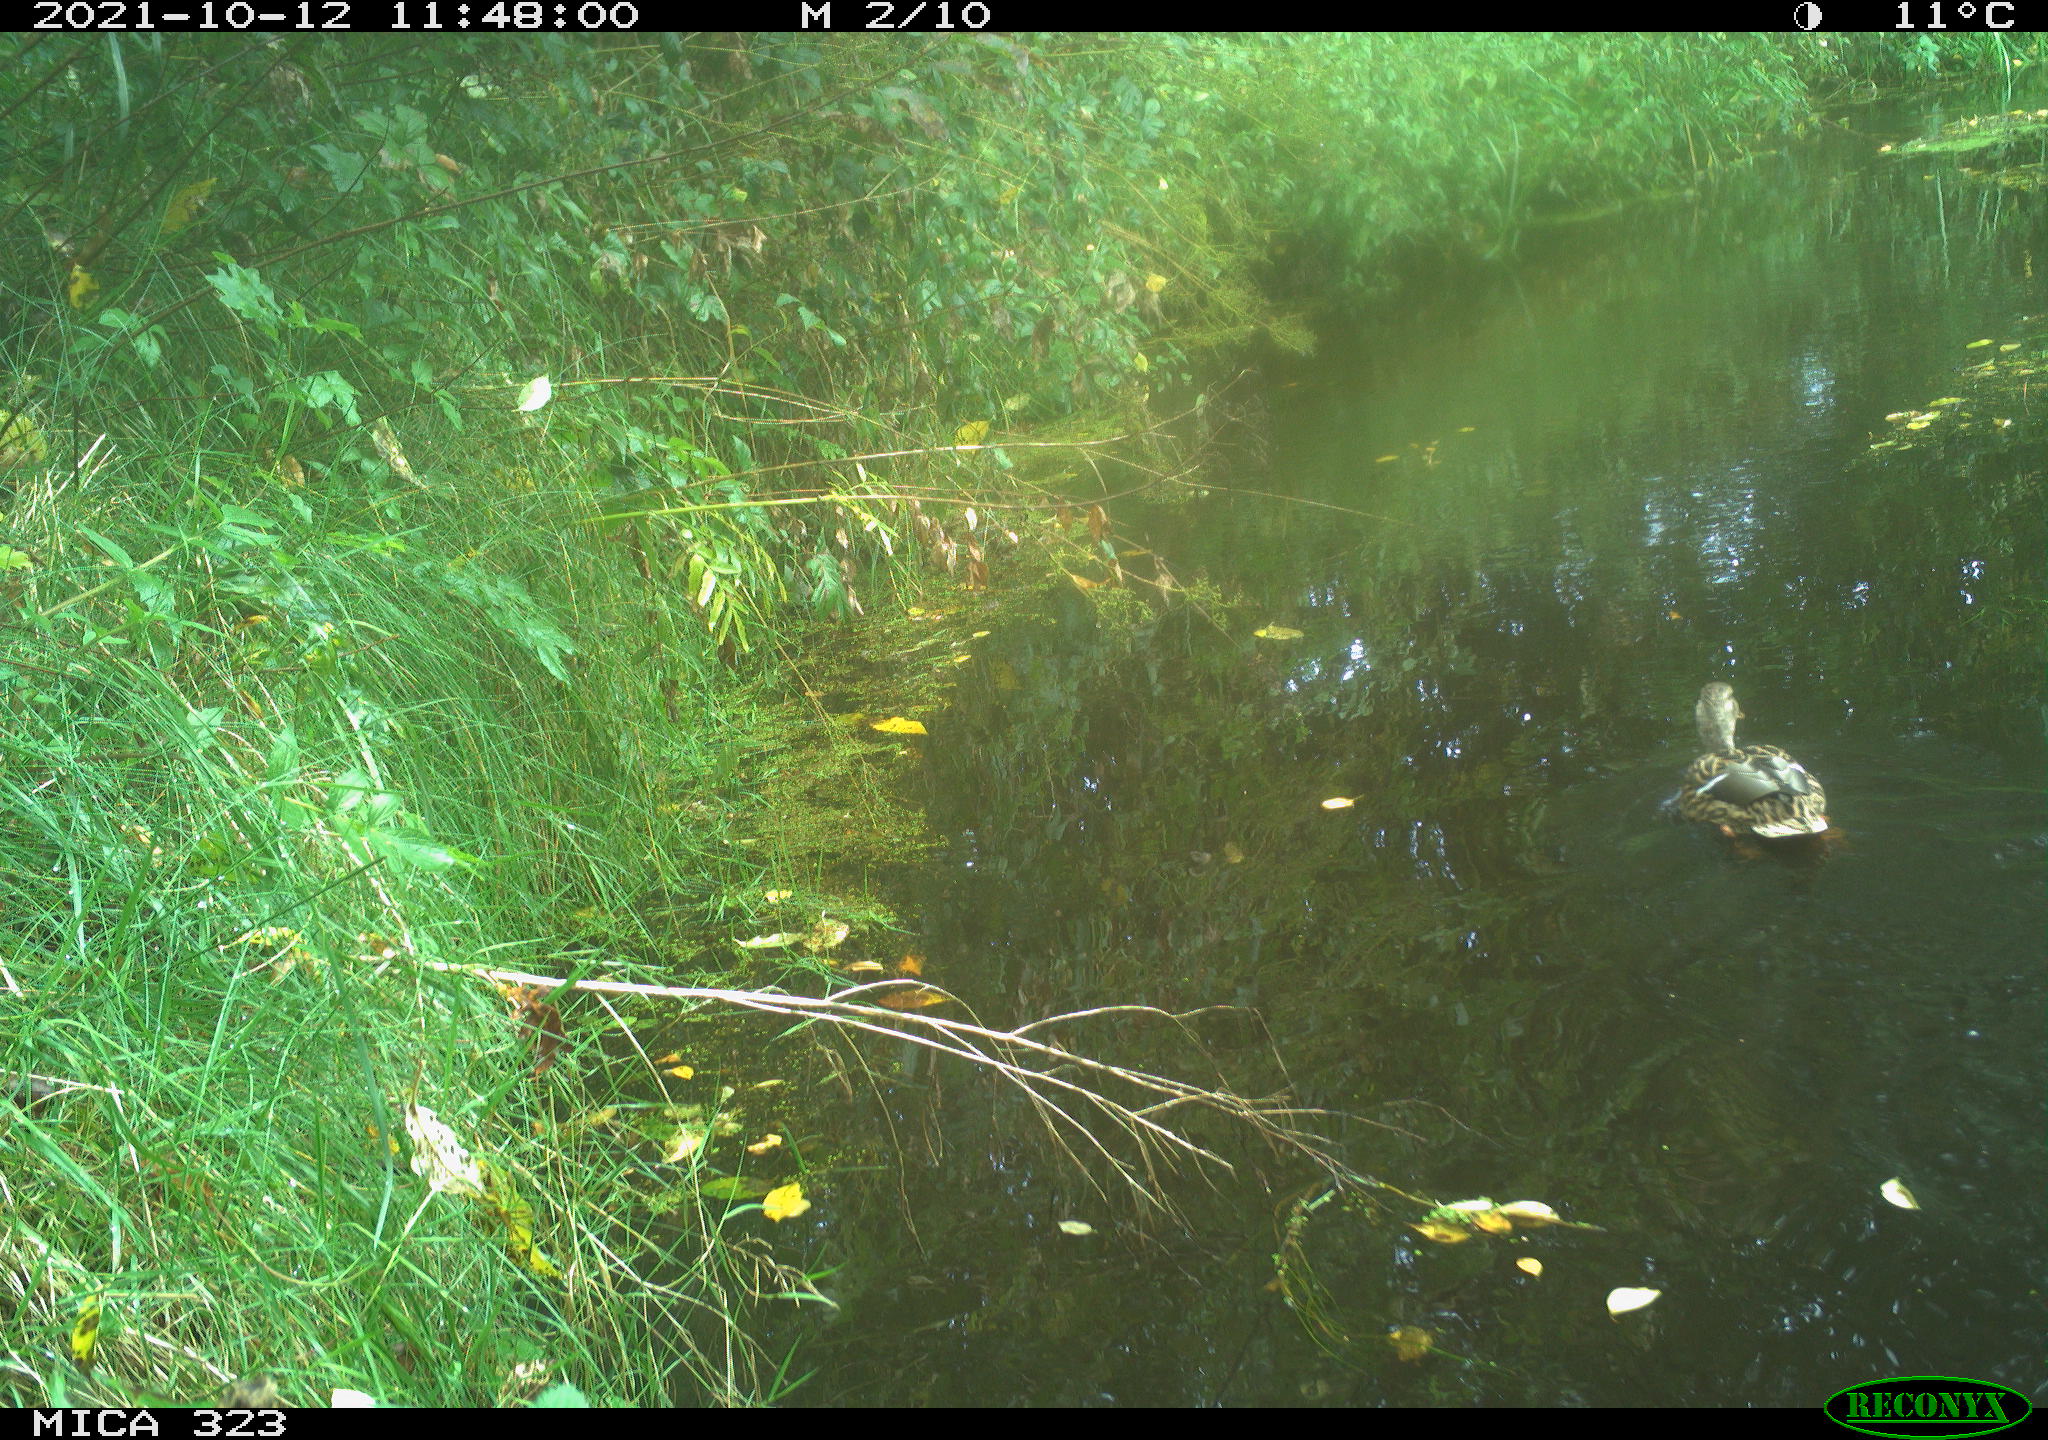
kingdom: Animalia
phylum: Chordata
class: Aves
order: Anseriformes
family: Anatidae
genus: Anas
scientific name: Anas platyrhynchos
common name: Mallard
